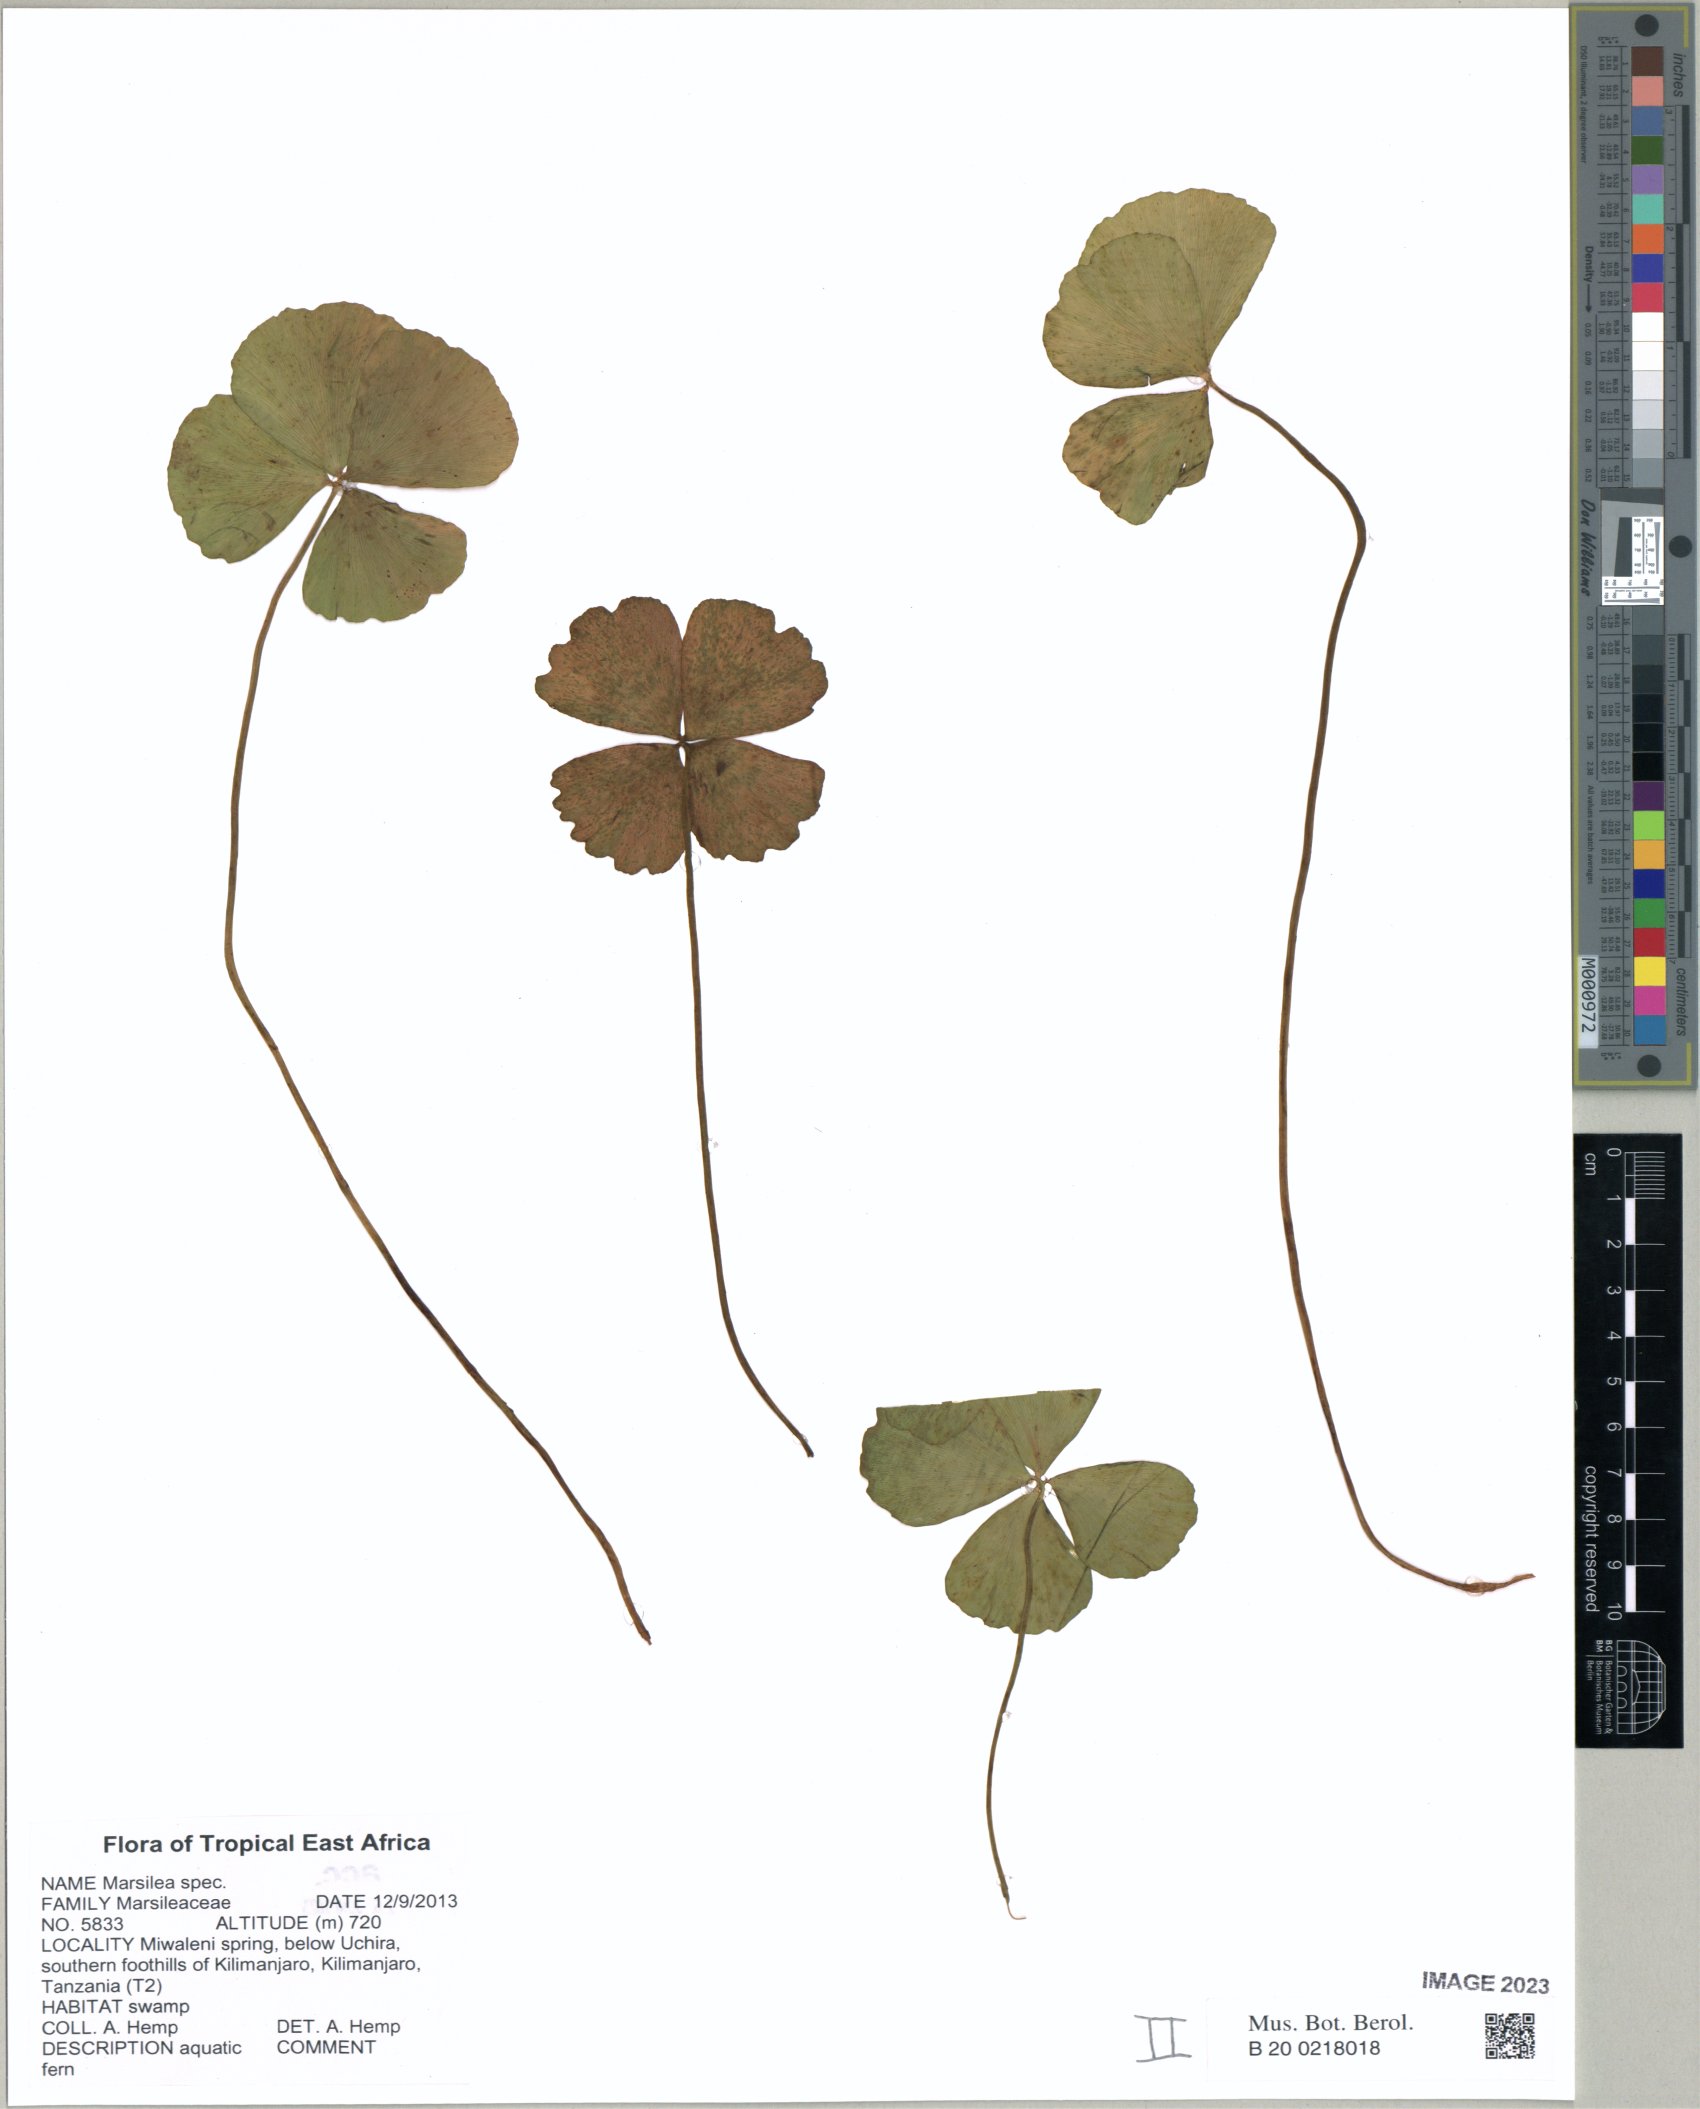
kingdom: Plantae
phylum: Tracheophyta
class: Polypodiopsida
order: Salviniales
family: Marsileaceae
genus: Marsilea
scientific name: Marsilea
